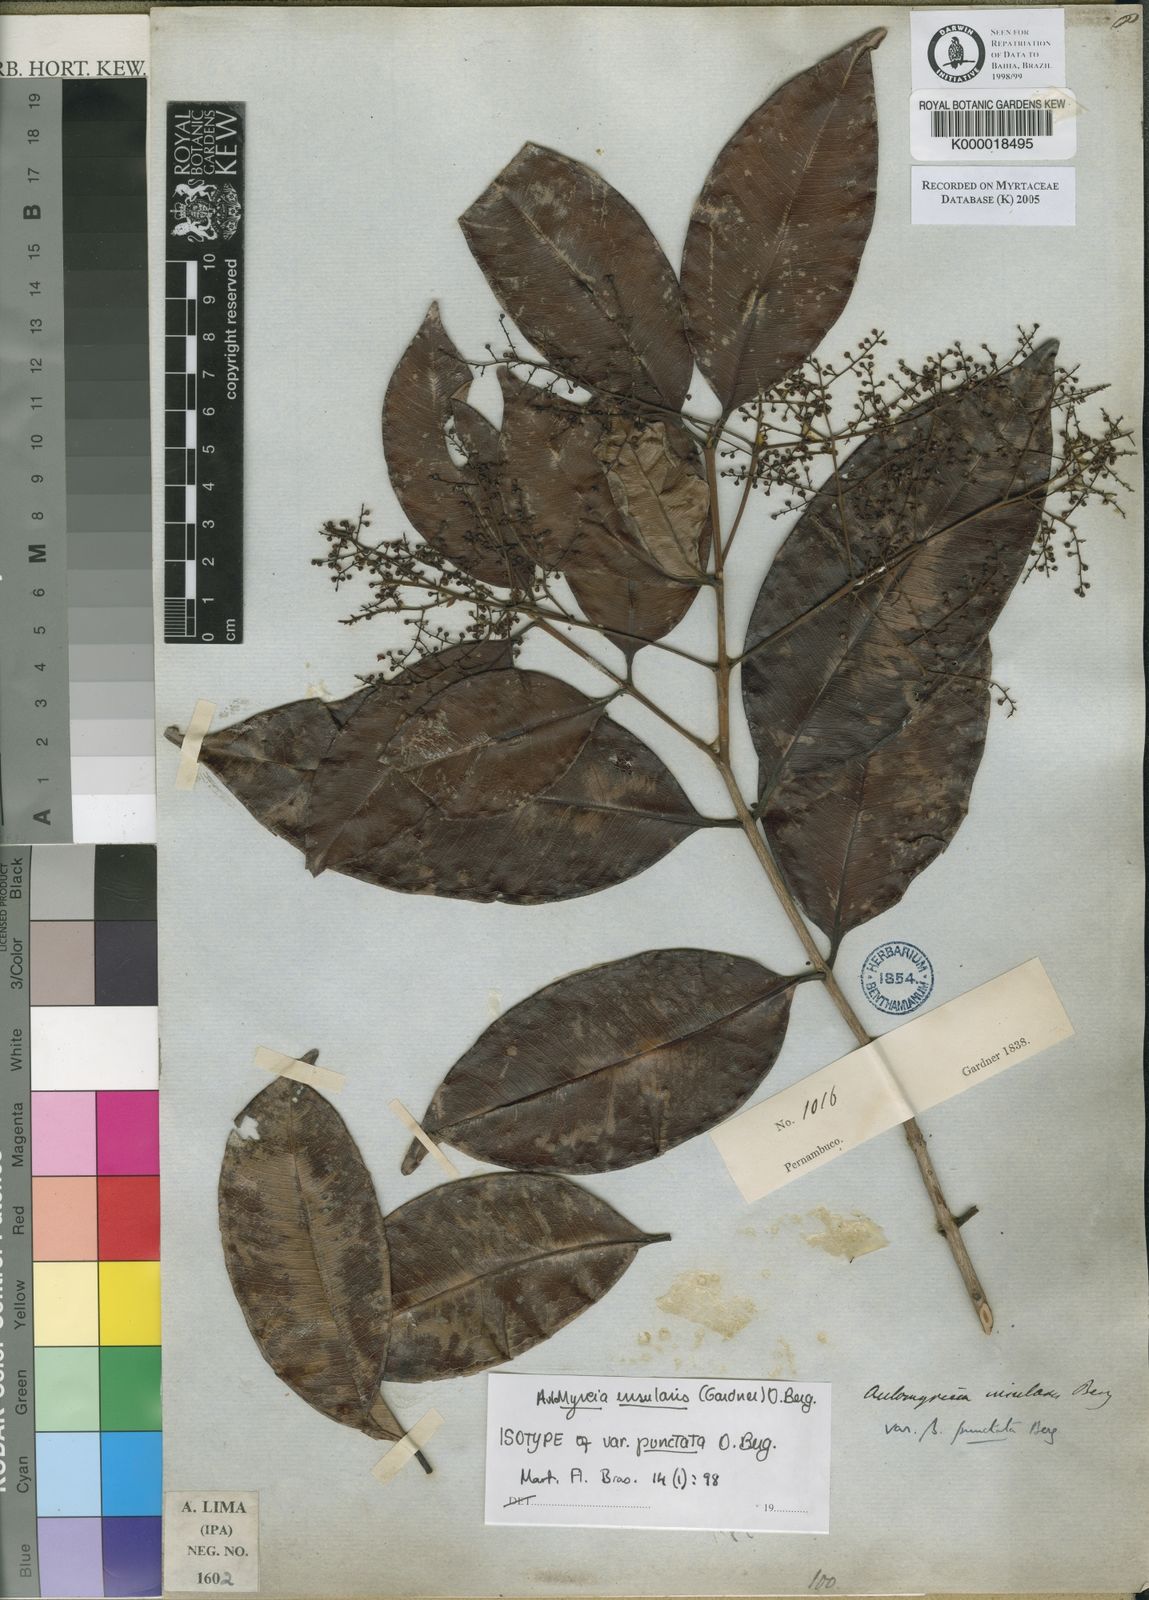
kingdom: Plantae
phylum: Tracheophyta
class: Magnoliopsida
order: Myrtales
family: Myrtaceae
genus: Myrcia
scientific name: Myrcia insularis
